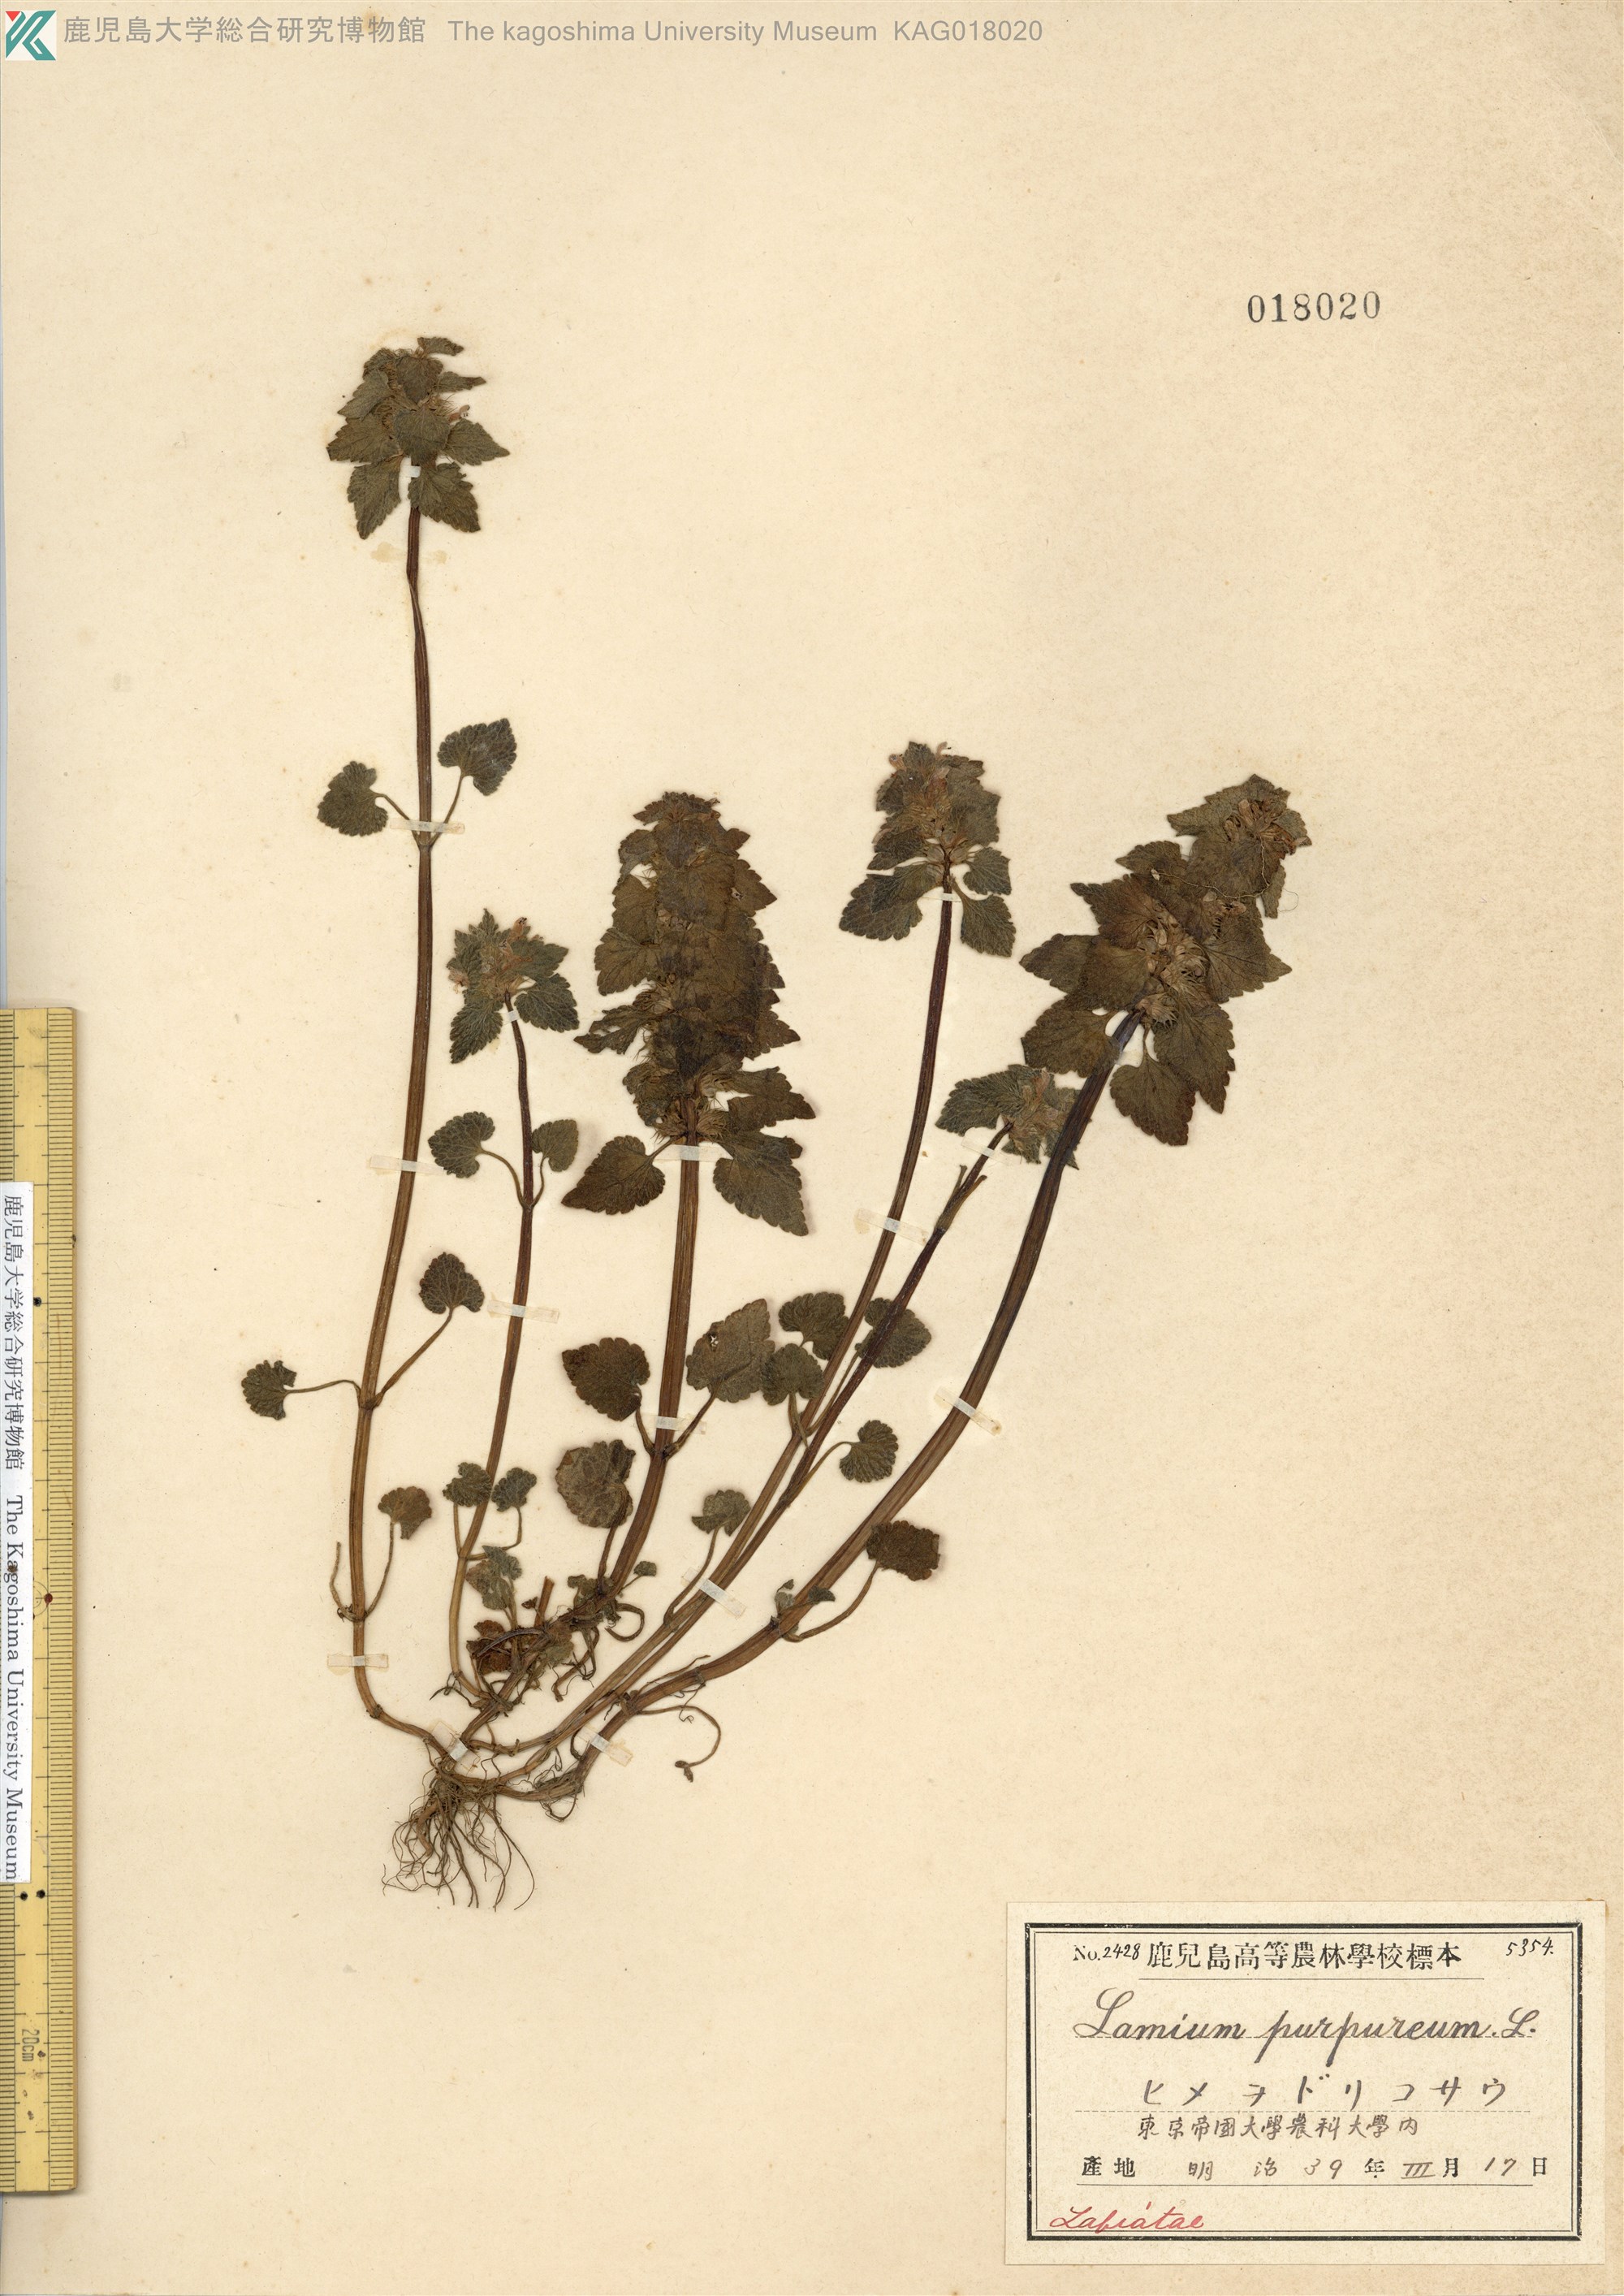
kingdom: Plantae
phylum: Tracheophyta
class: Magnoliopsida
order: Lamiales
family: Lamiaceae
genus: Lamium
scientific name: Lamium purpureum
